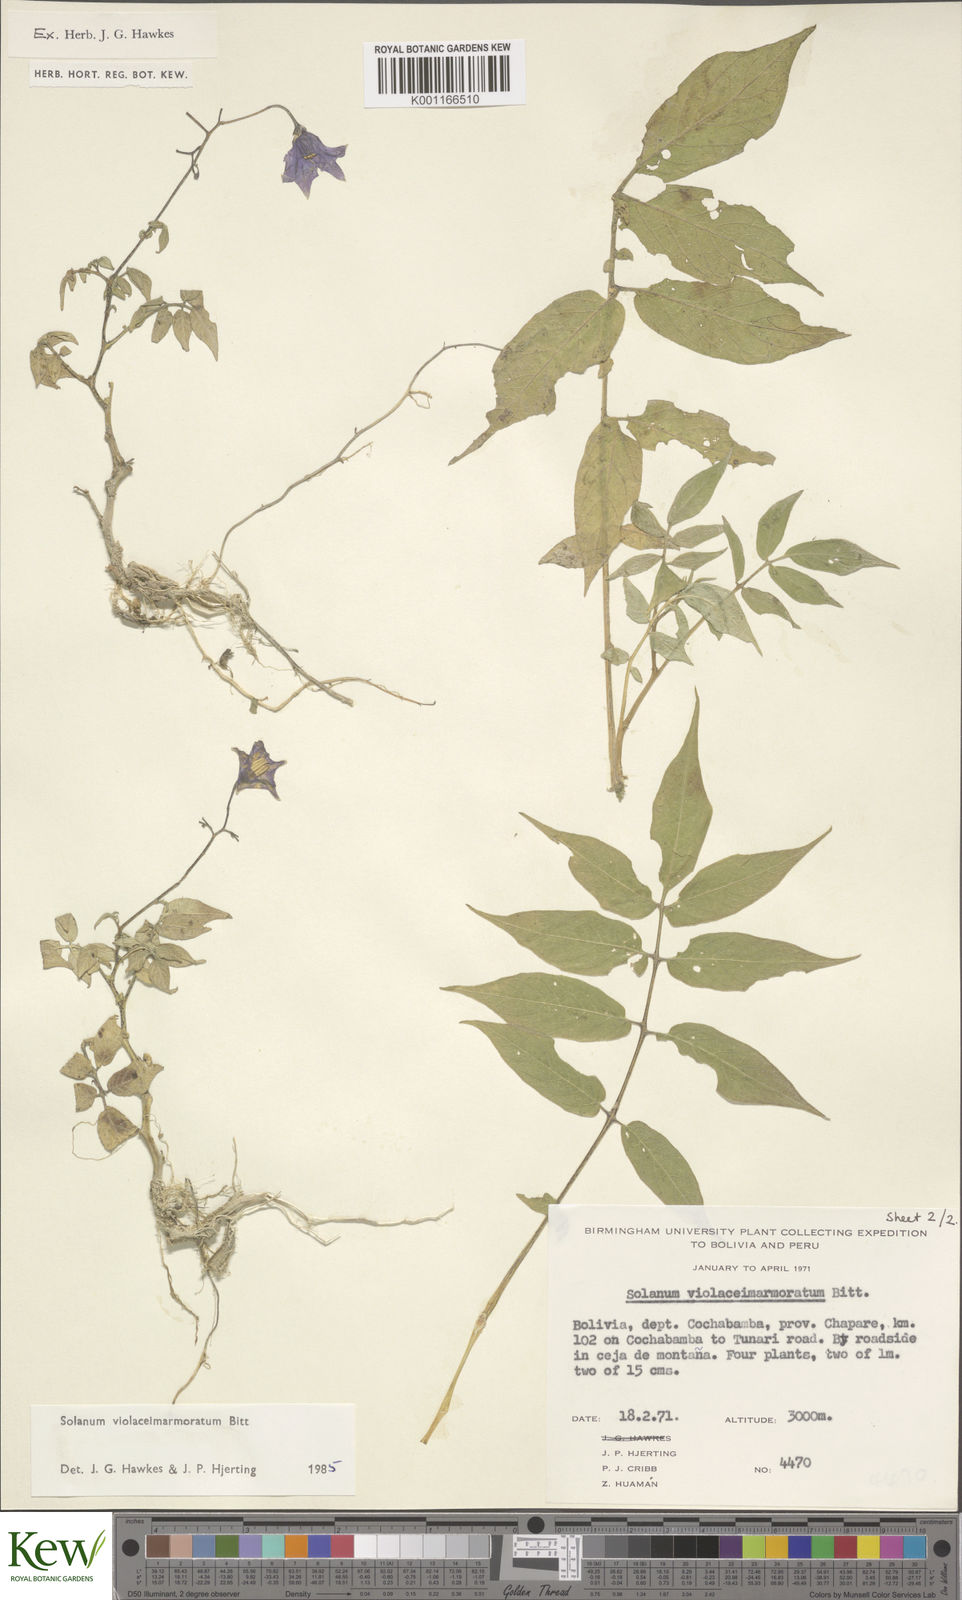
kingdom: Plantae
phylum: Tracheophyta
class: Magnoliopsida
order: Solanales
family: Solanaceae
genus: Solanum
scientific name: Solanum violaceimarmoratum
